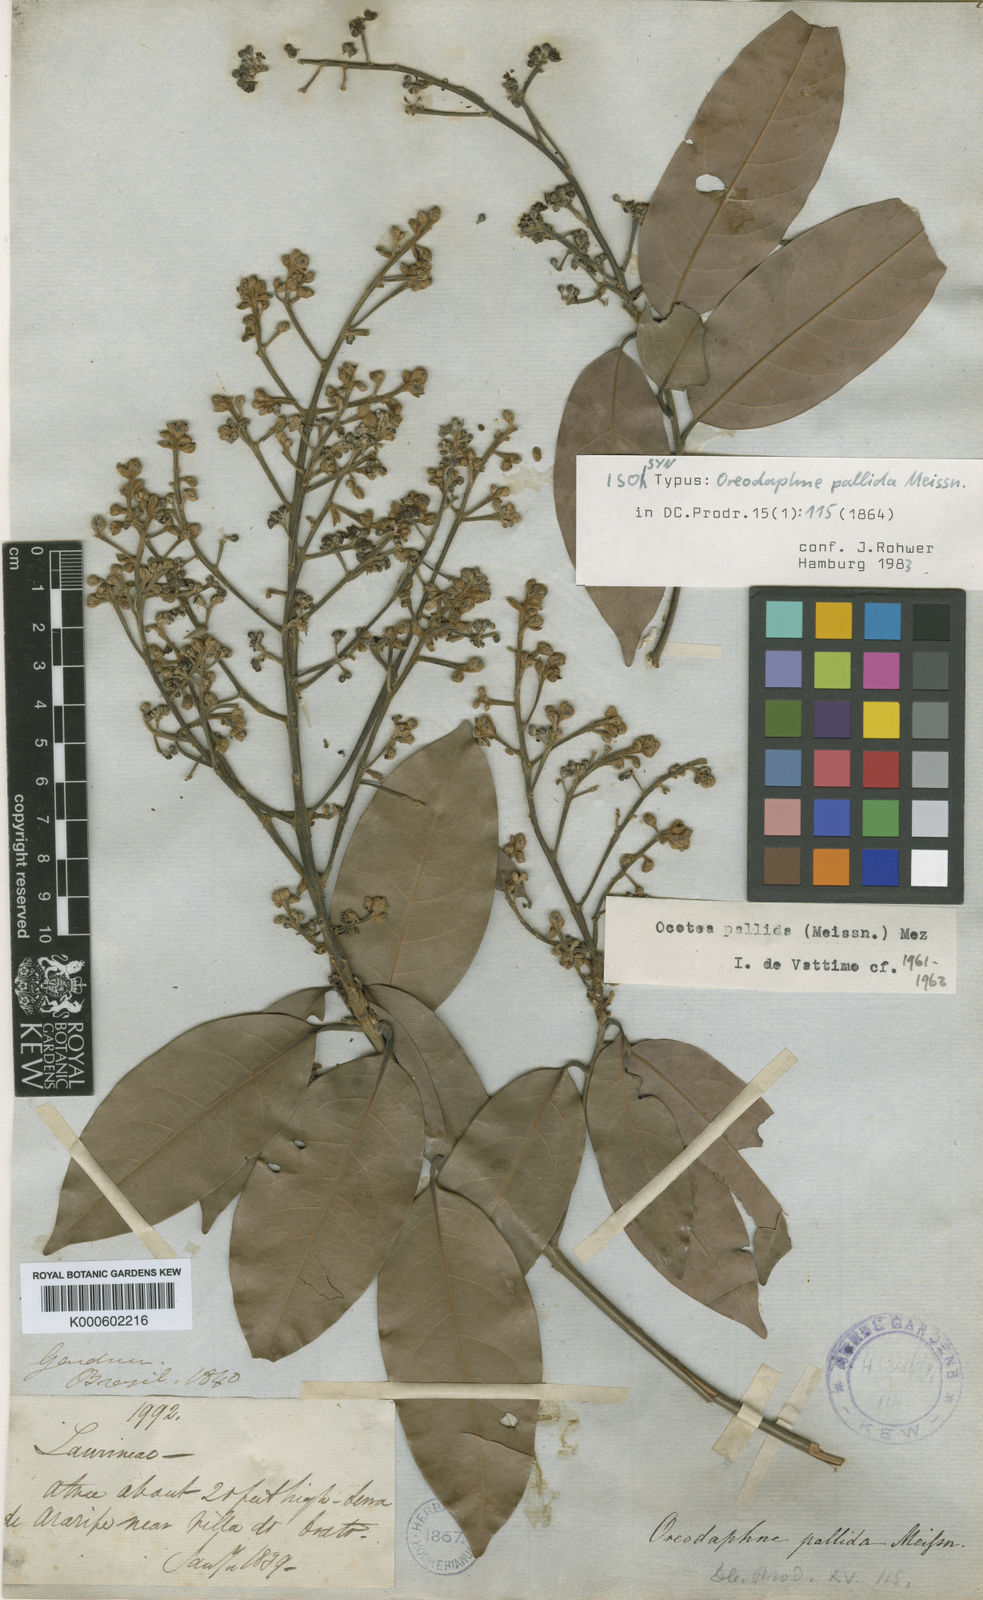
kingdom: Plantae
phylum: Tracheophyta
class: Magnoliopsida
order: Laurales
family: Lauraceae
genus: Ocotea
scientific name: Ocotea nitida
